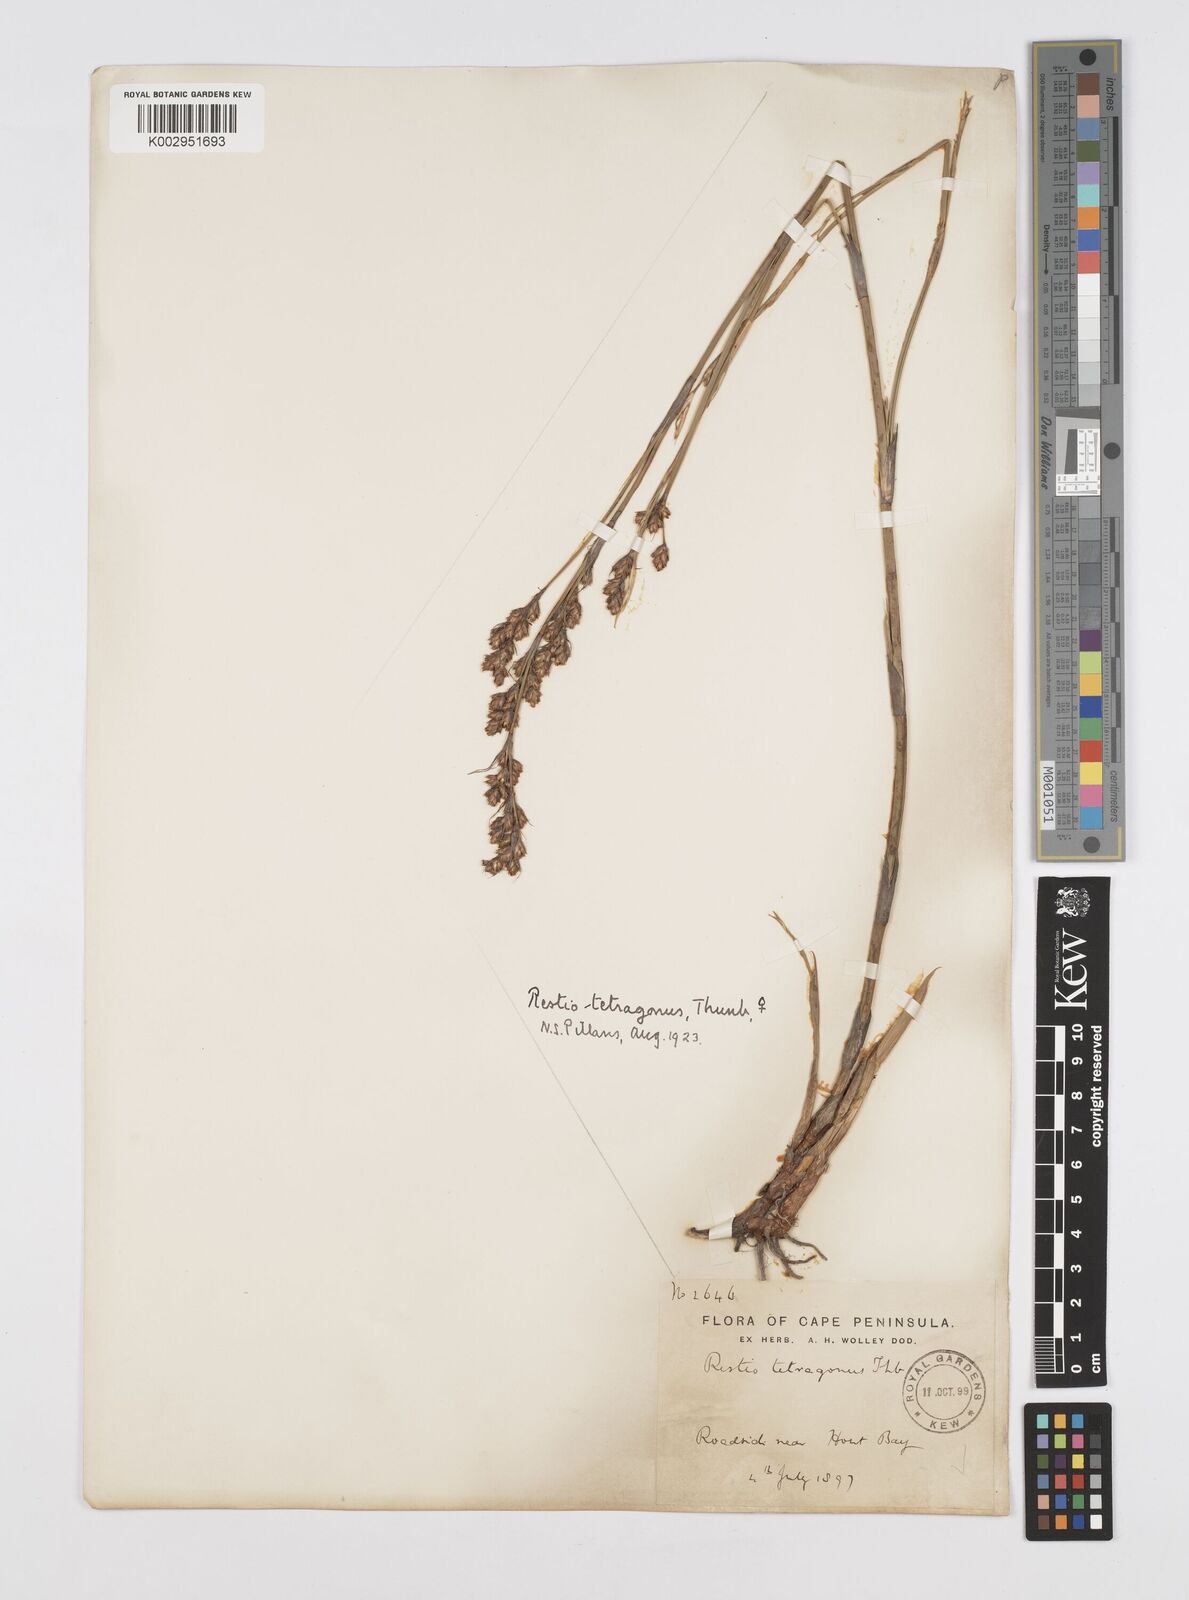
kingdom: Plantae
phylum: Tracheophyta
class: Liliopsida
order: Poales
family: Restionaceae
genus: Restio
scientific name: Restio tetragonus
